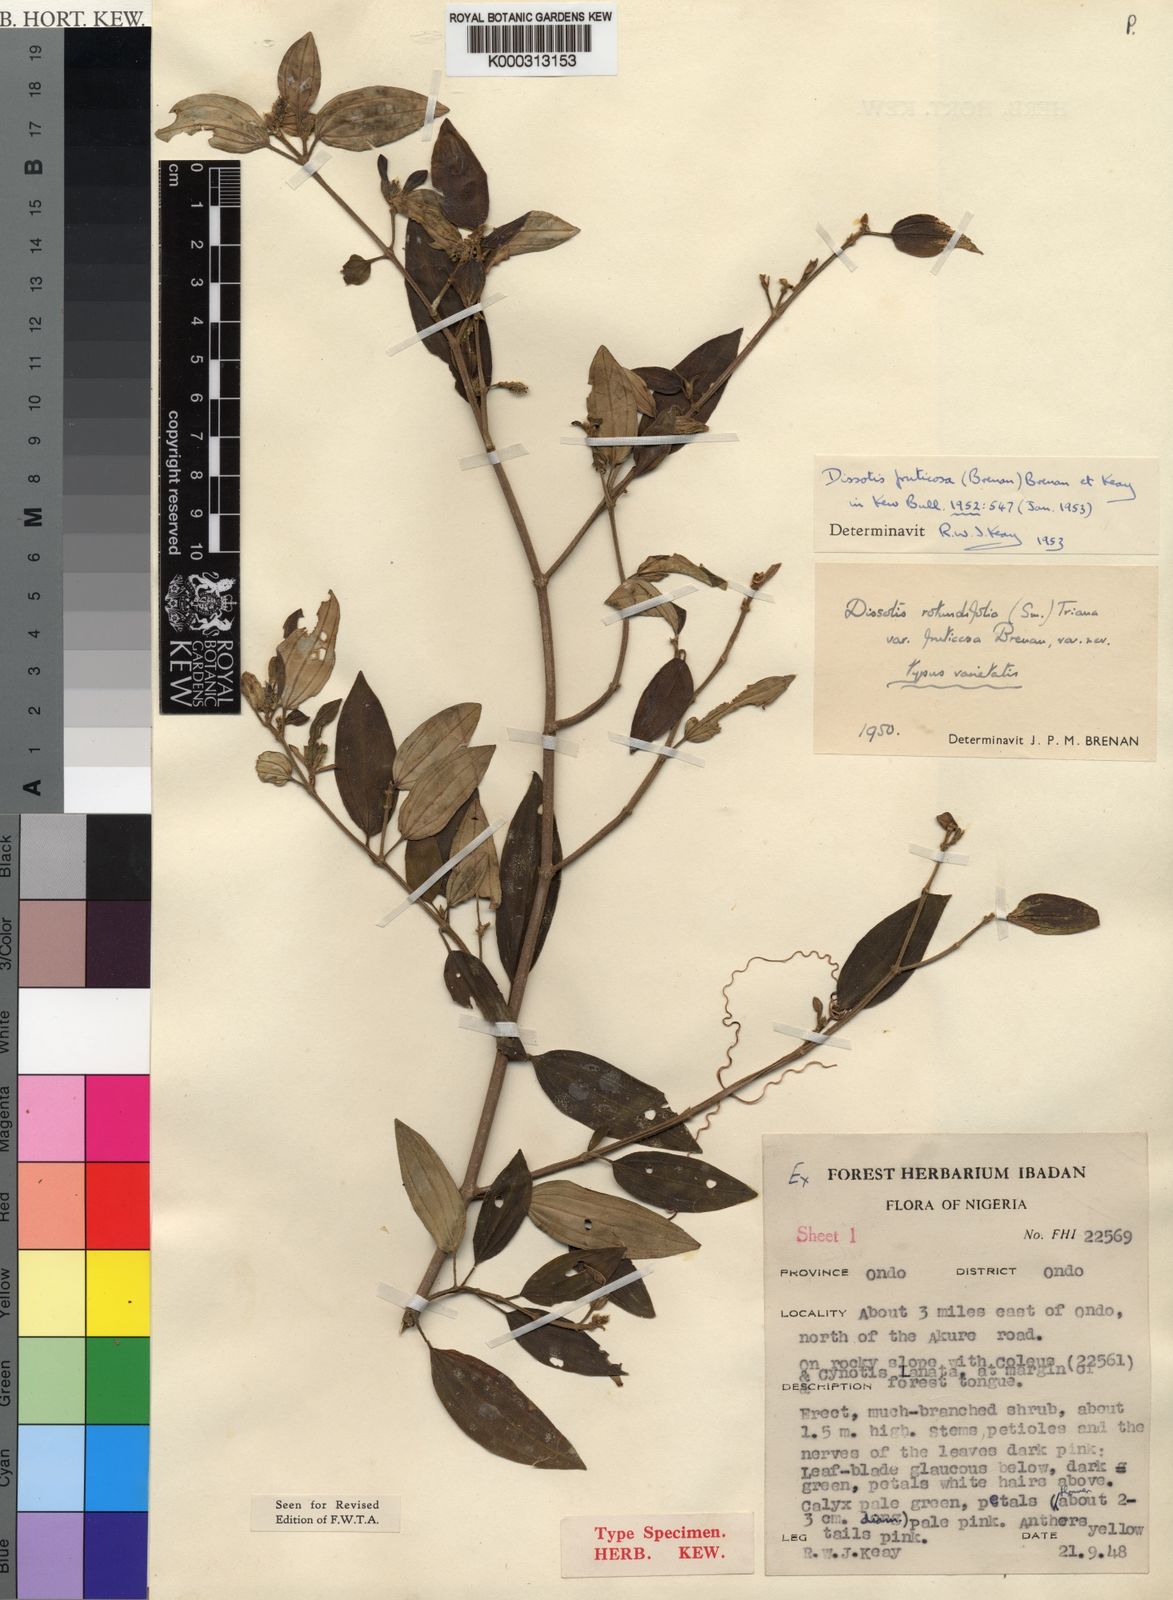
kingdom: Plantae
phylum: Tracheophyta
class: Magnoliopsida
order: Myrtales
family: Melastomataceae
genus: Heterotis
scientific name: Heterotis rotundifolia
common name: Pinklady
